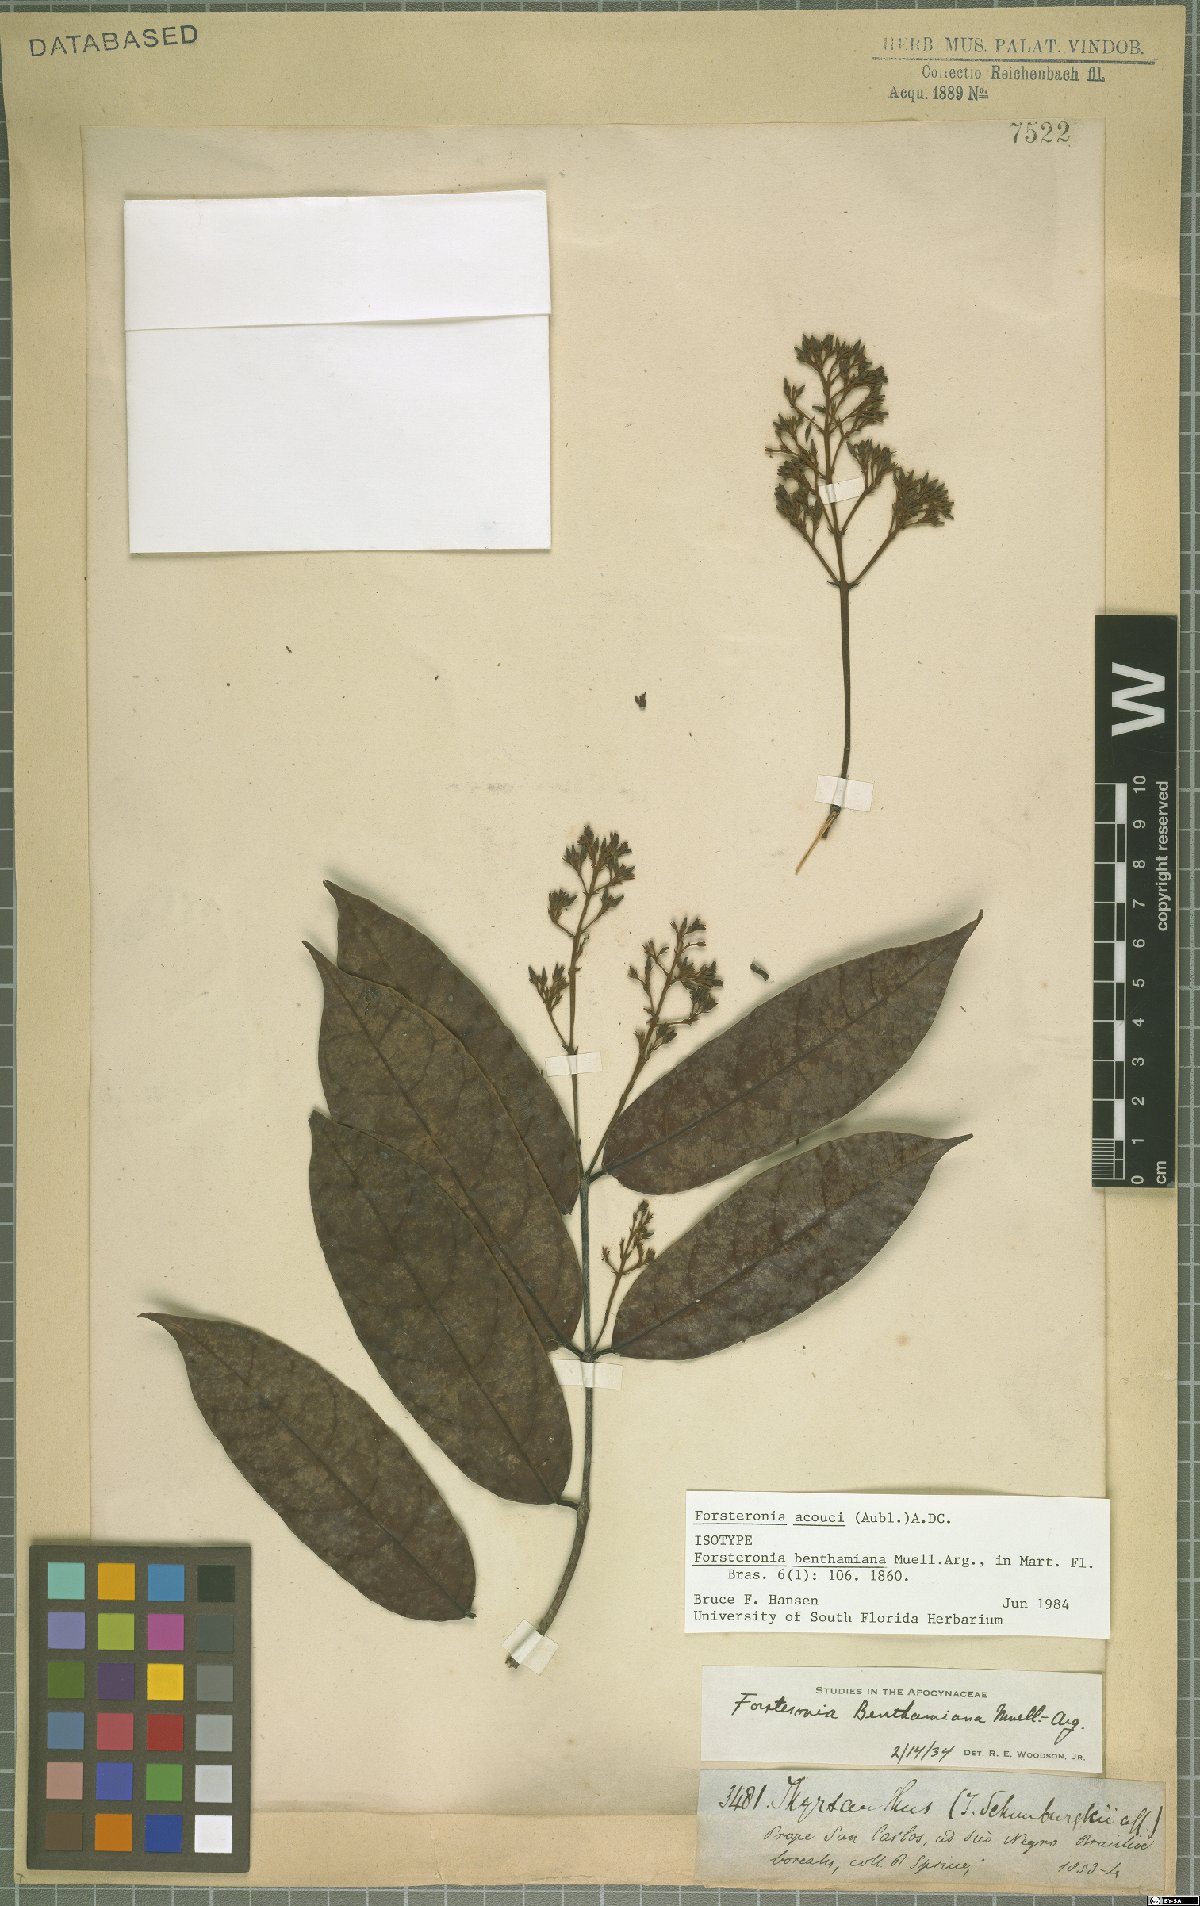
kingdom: Plantae
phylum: Tracheophyta
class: Magnoliopsida
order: Gentianales
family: Apocynaceae
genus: Forsteronia
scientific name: Forsteronia acouci
